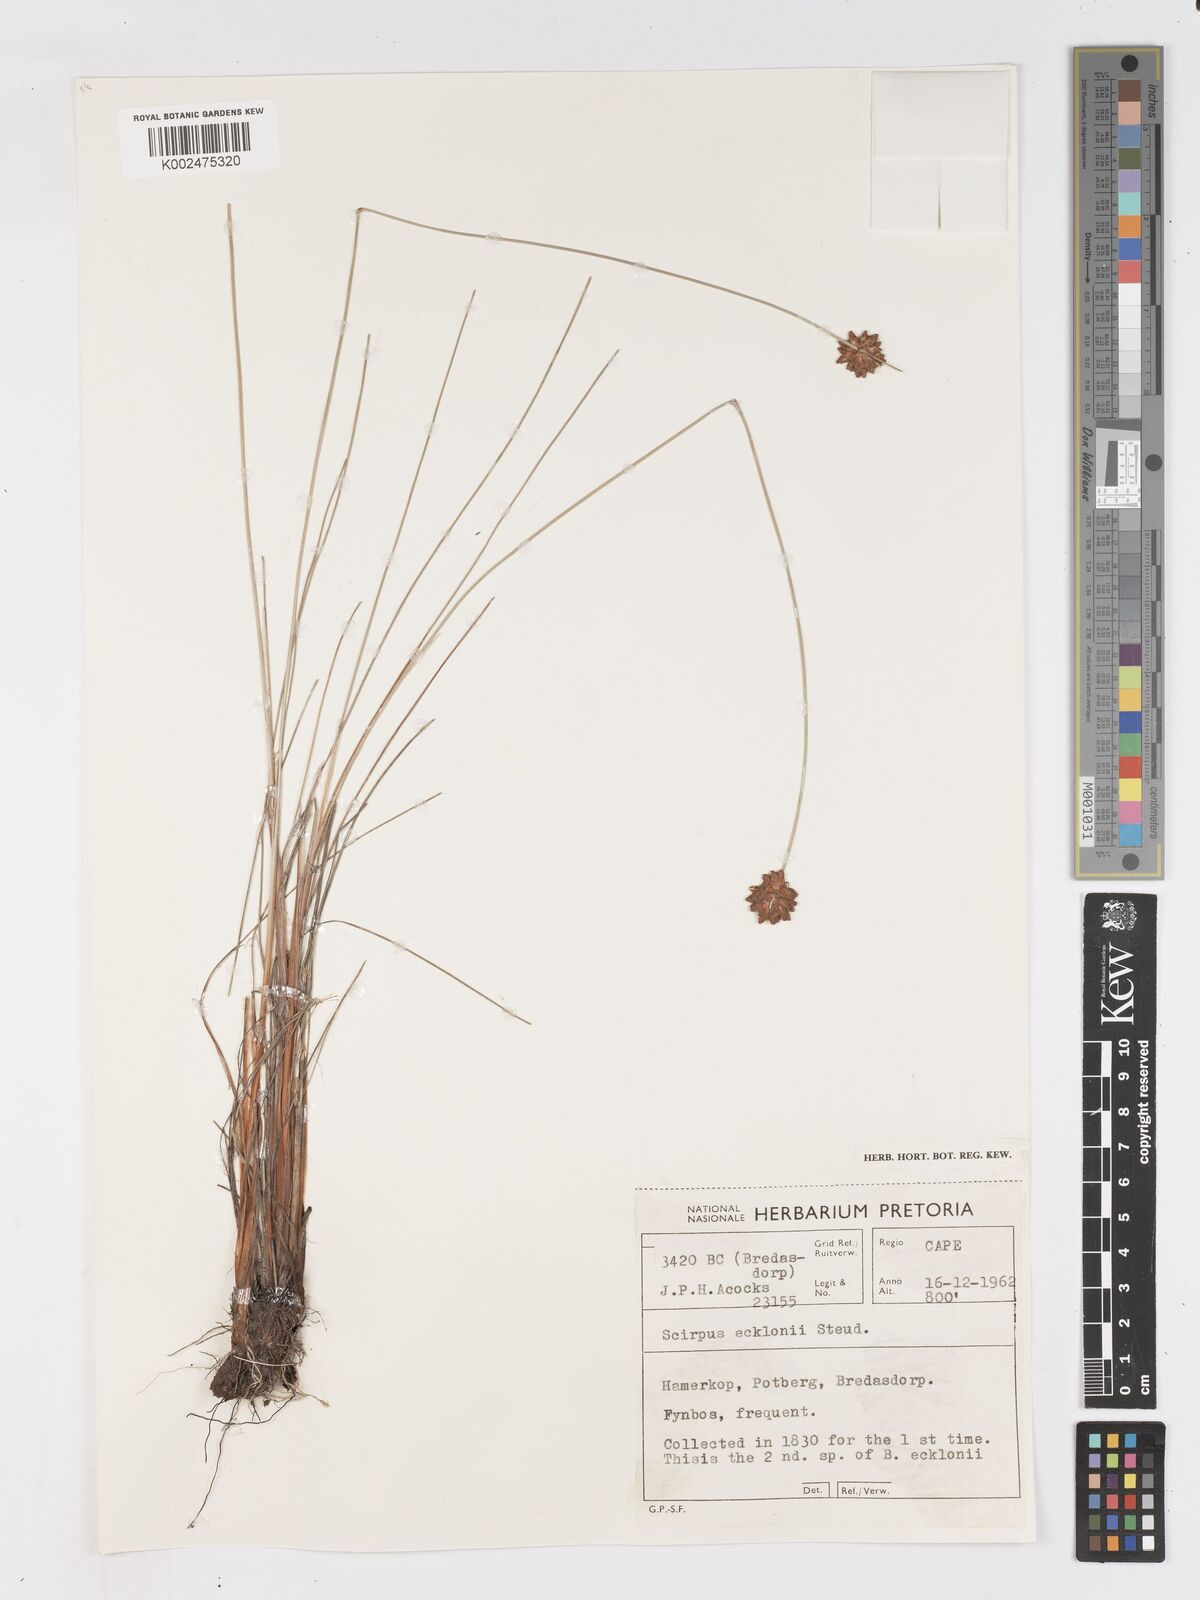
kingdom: Plantae
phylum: Tracheophyta
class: Liliopsida
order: Poales
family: Cyperaceae
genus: Ficinia
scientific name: Ficinia ecklonea
